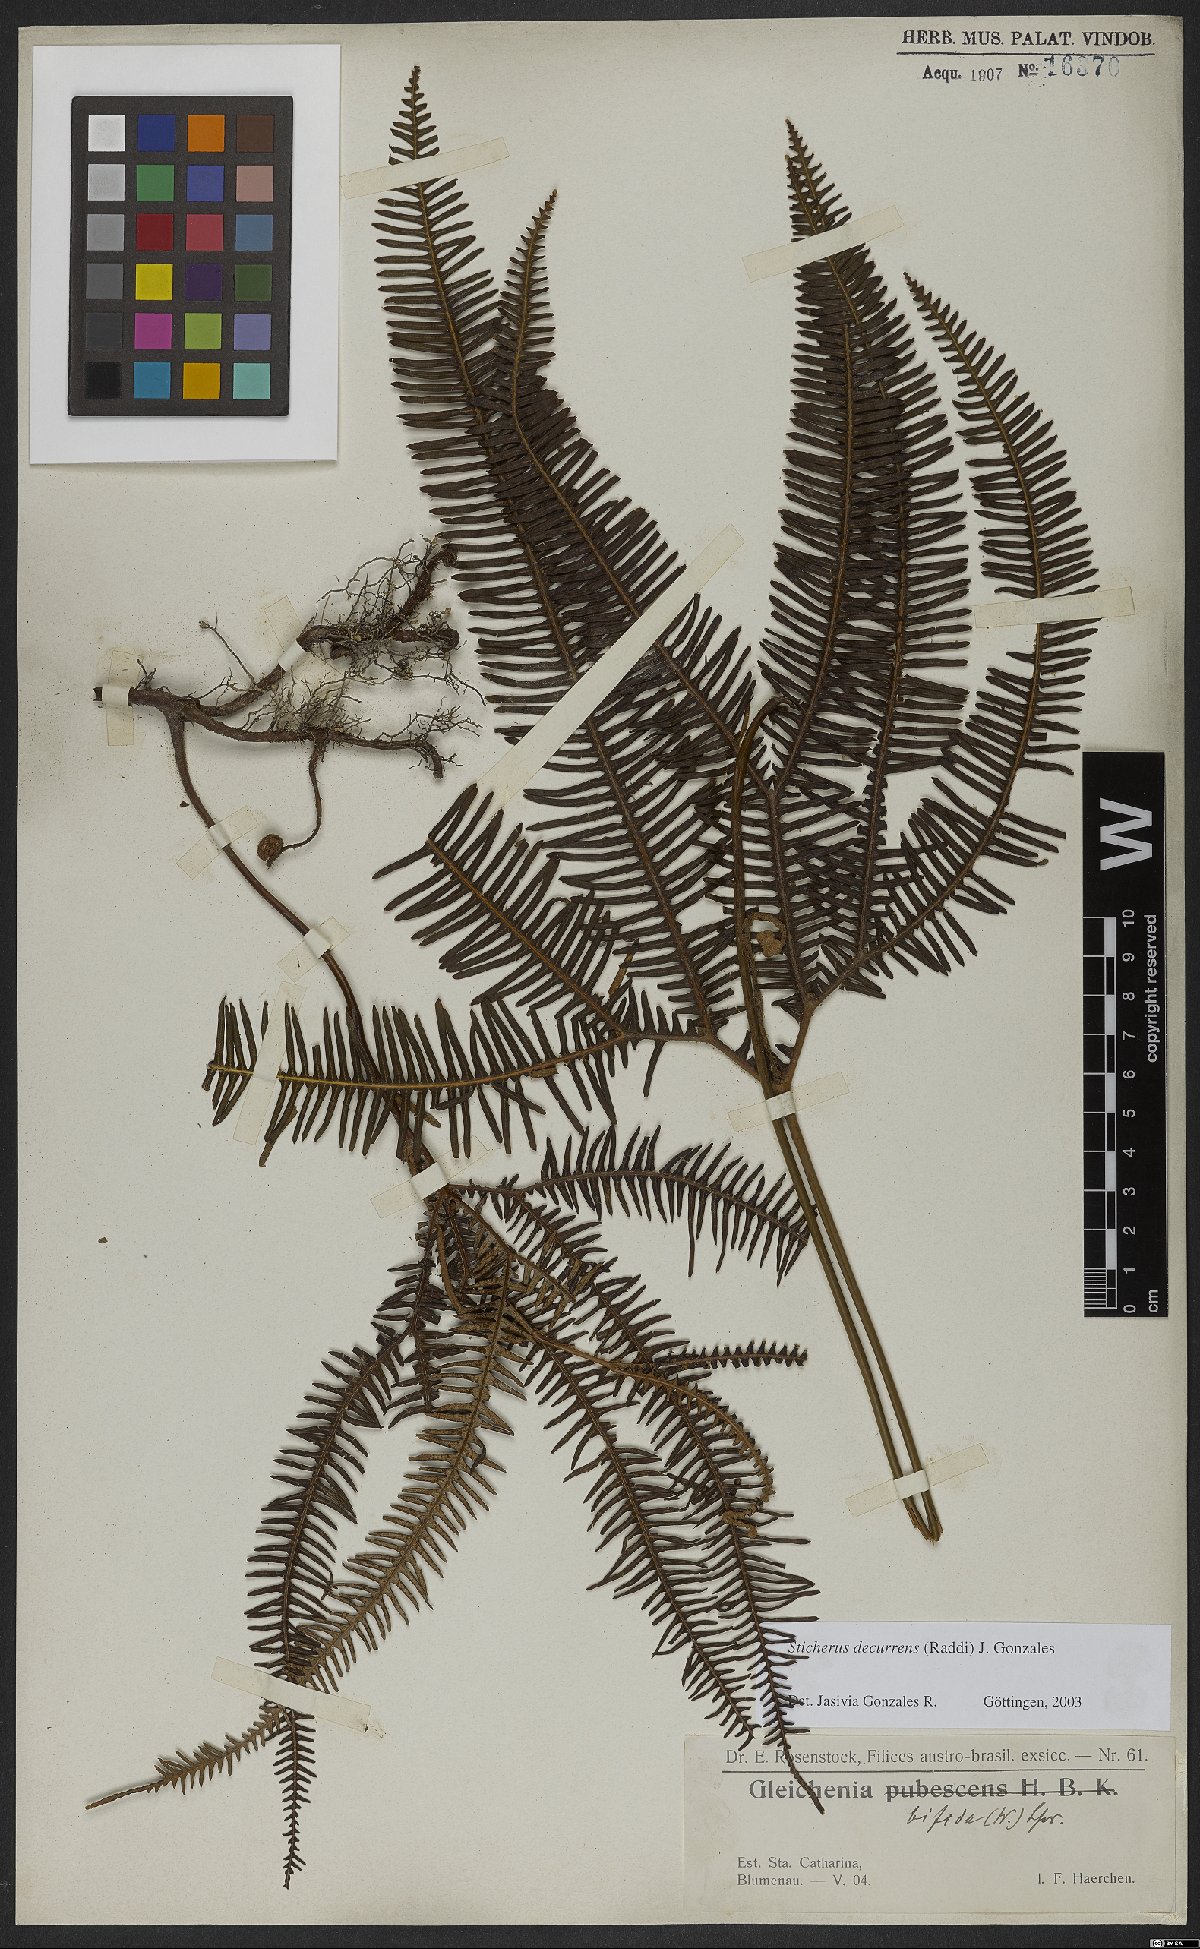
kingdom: Plantae
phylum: Tracheophyta
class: Polypodiopsida
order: Gleicheniales
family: Gleicheniaceae
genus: Sticherus
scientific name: Sticherus decurrens
